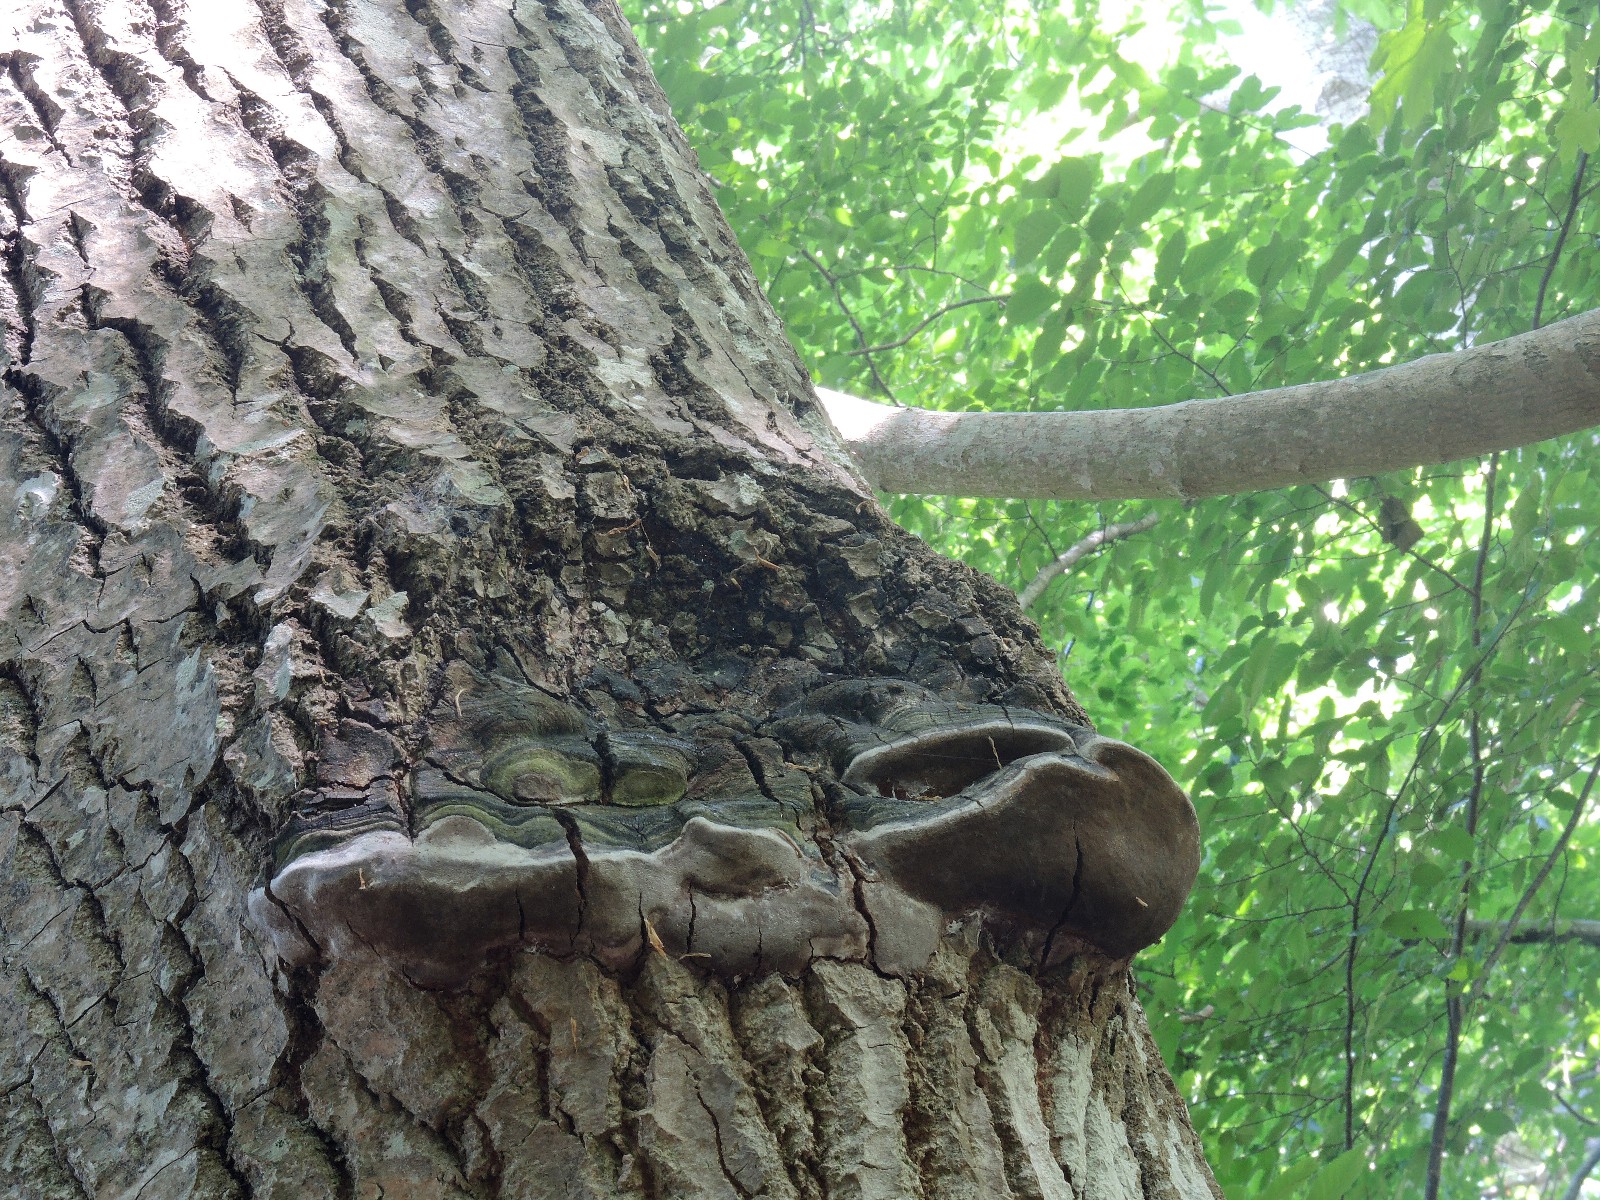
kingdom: Fungi
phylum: Basidiomycota
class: Agaricomycetes
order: Hymenochaetales
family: Hymenochaetaceae
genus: Phellinus
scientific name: Phellinus tremulae
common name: aspe-ildporesvamp
